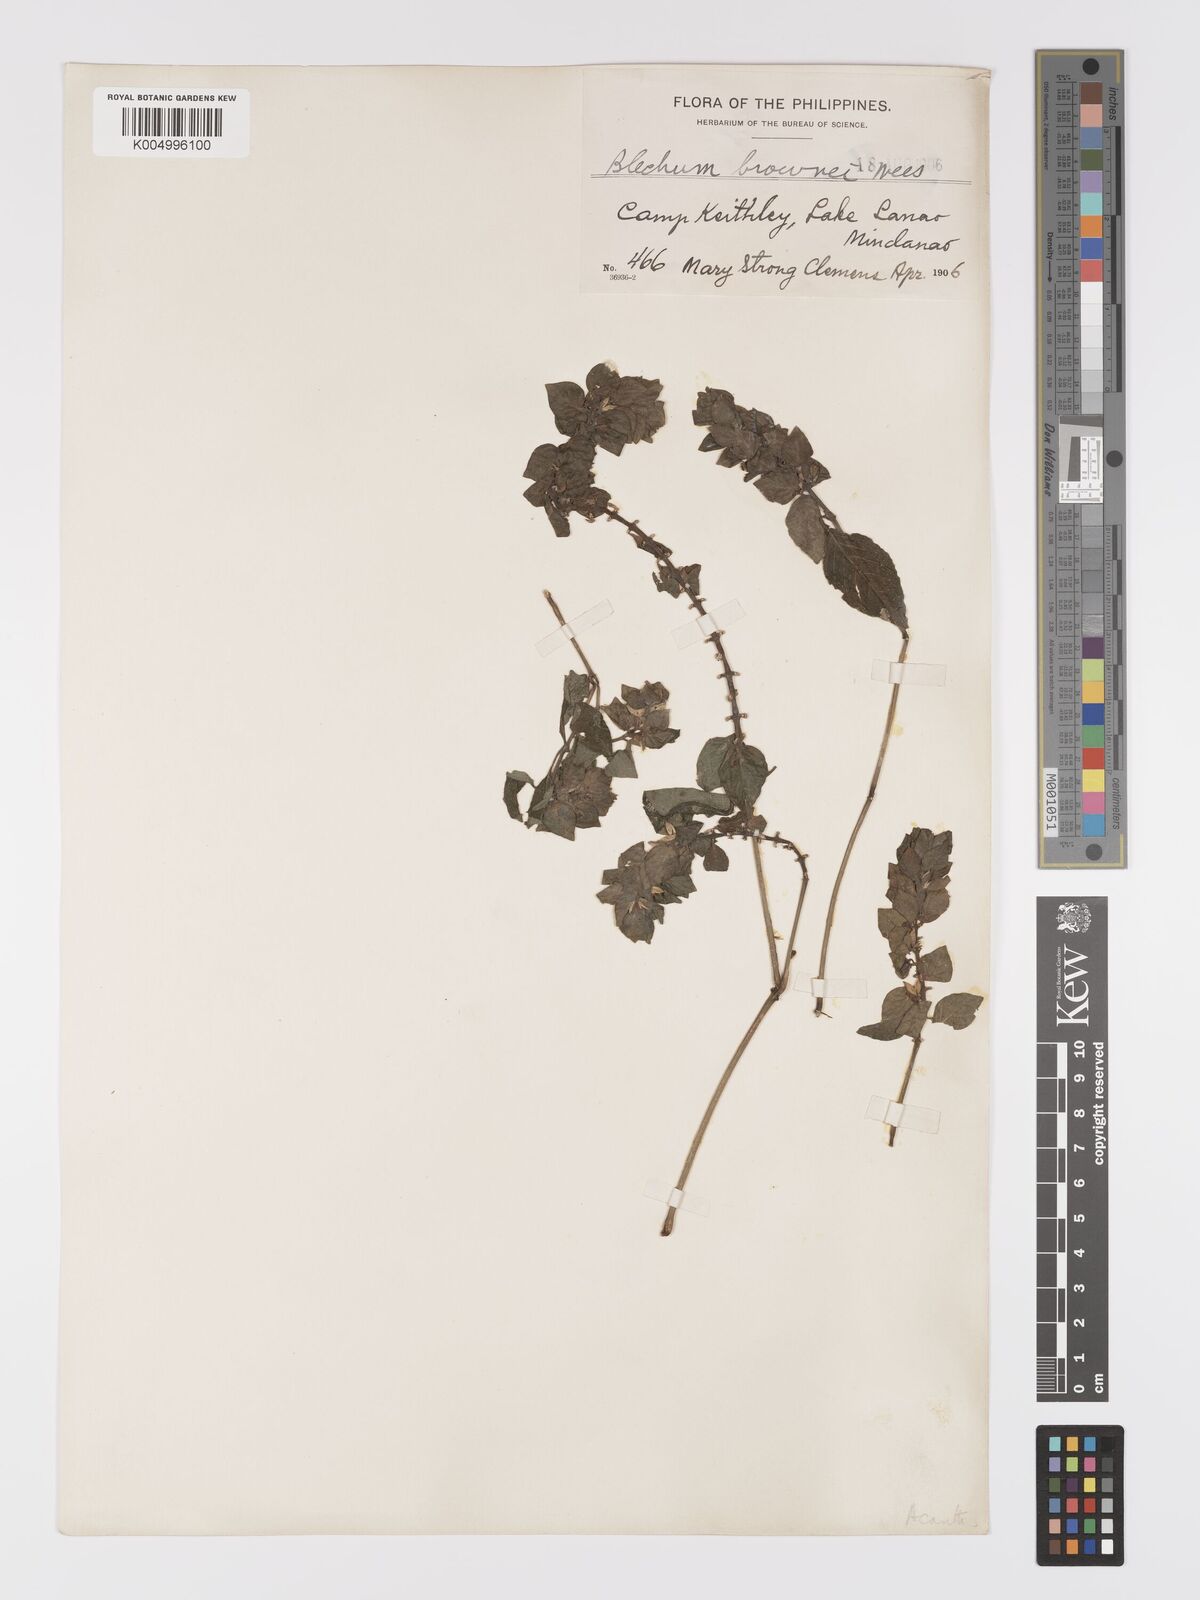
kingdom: Plantae
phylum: Tracheophyta
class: Magnoliopsida
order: Lamiales
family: Acanthaceae
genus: Ruellia
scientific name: Ruellia blechum
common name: Browne's blechum
